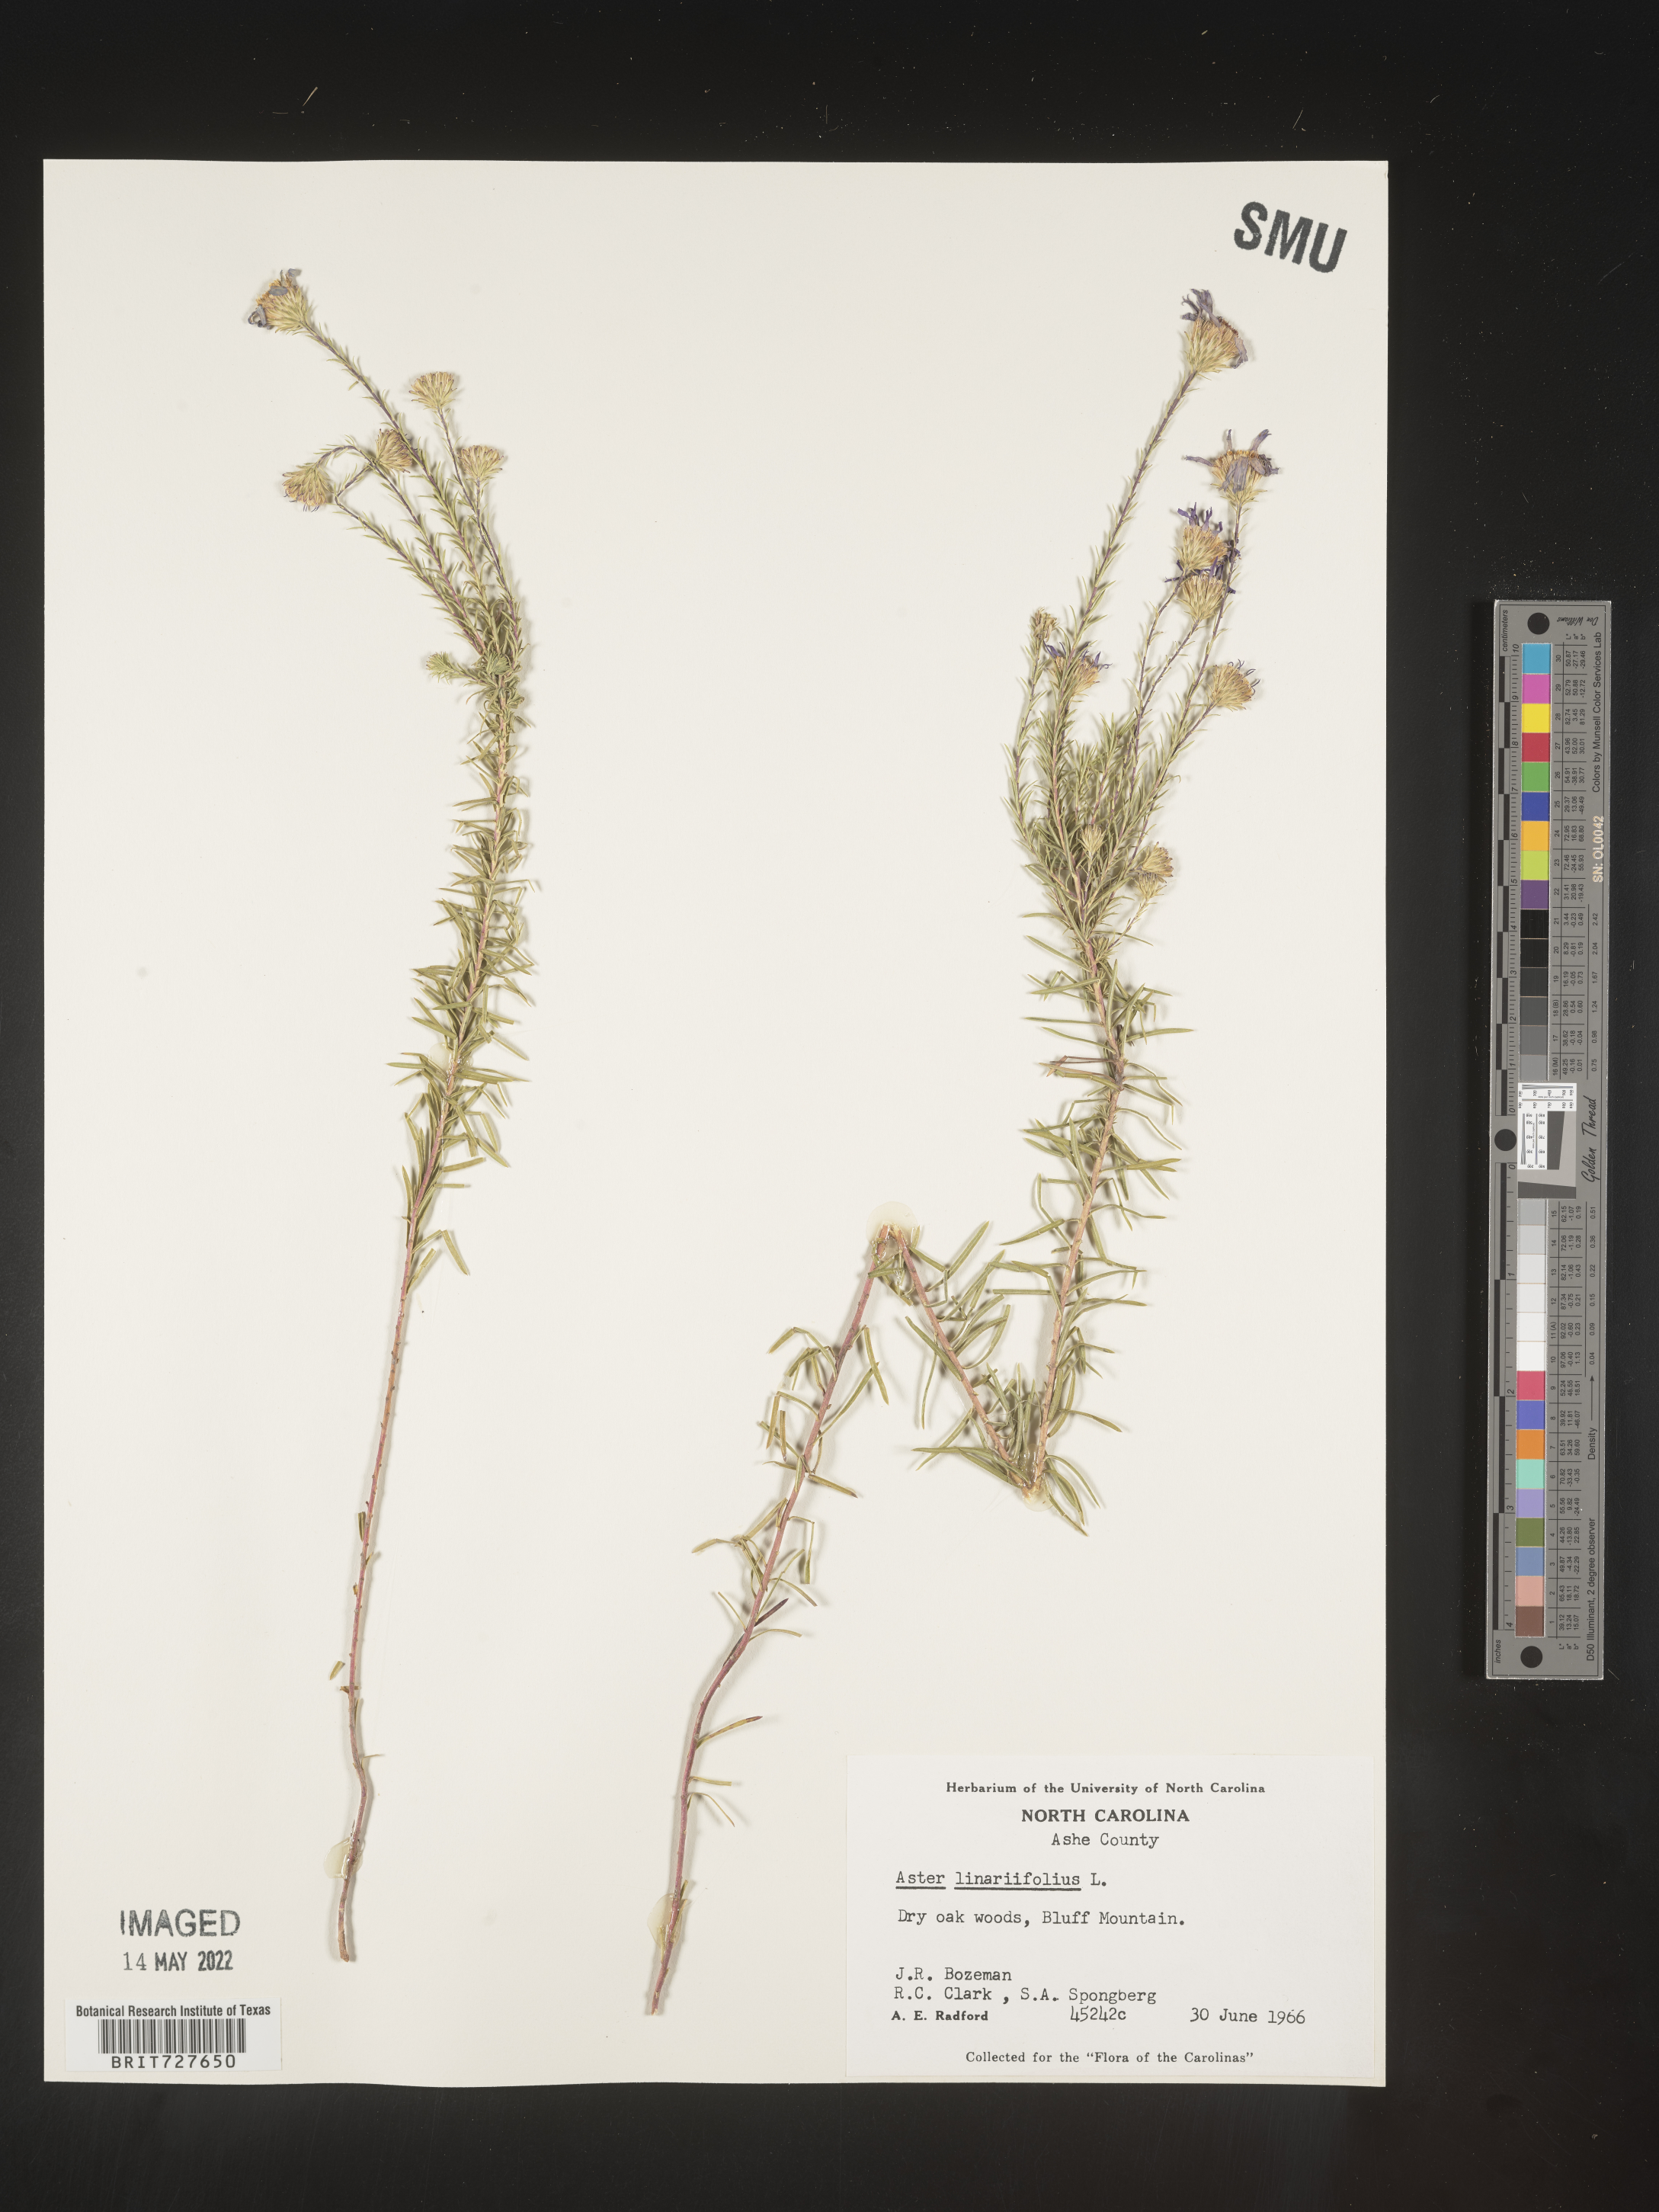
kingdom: Plantae
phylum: Tracheophyta
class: Magnoliopsida
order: Asterales
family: Asteraceae
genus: Ionactis
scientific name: Ionactis linariifolia
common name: Flax-leaf aster
